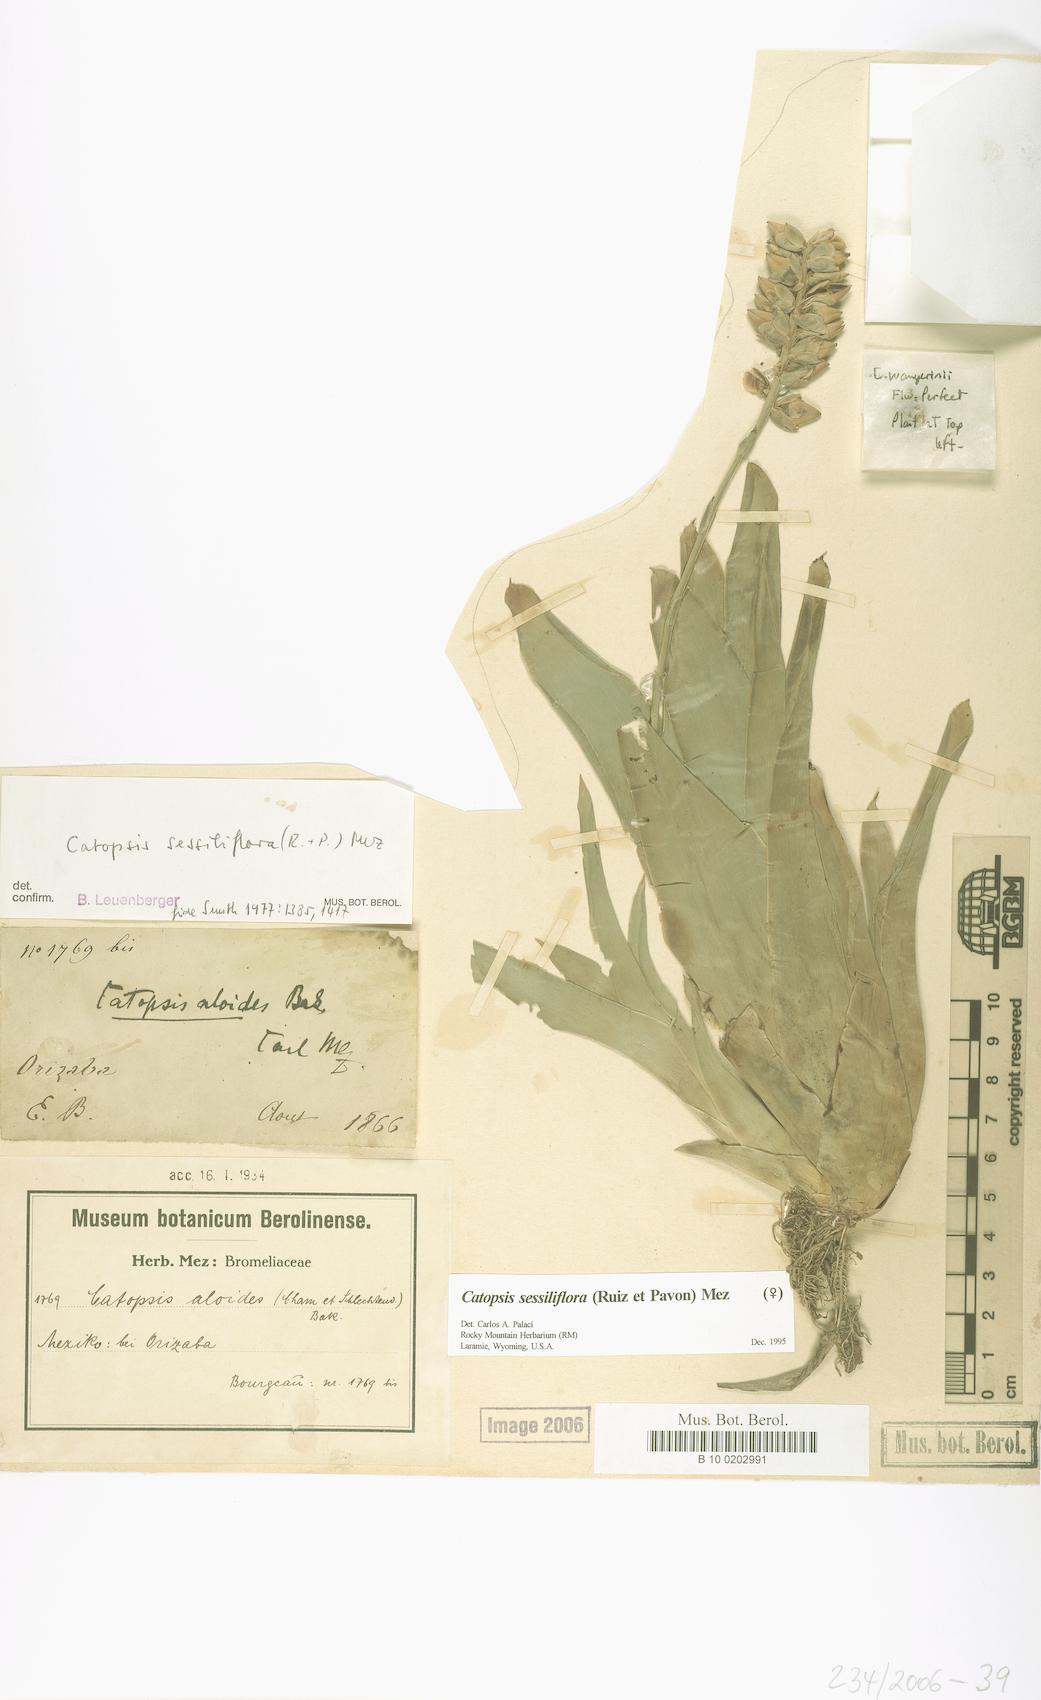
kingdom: Plantae
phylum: Tracheophyta
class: Liliopsida
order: Poales
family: Bromeliaceae
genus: Catopsis
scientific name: Catopsis sessiliflora
